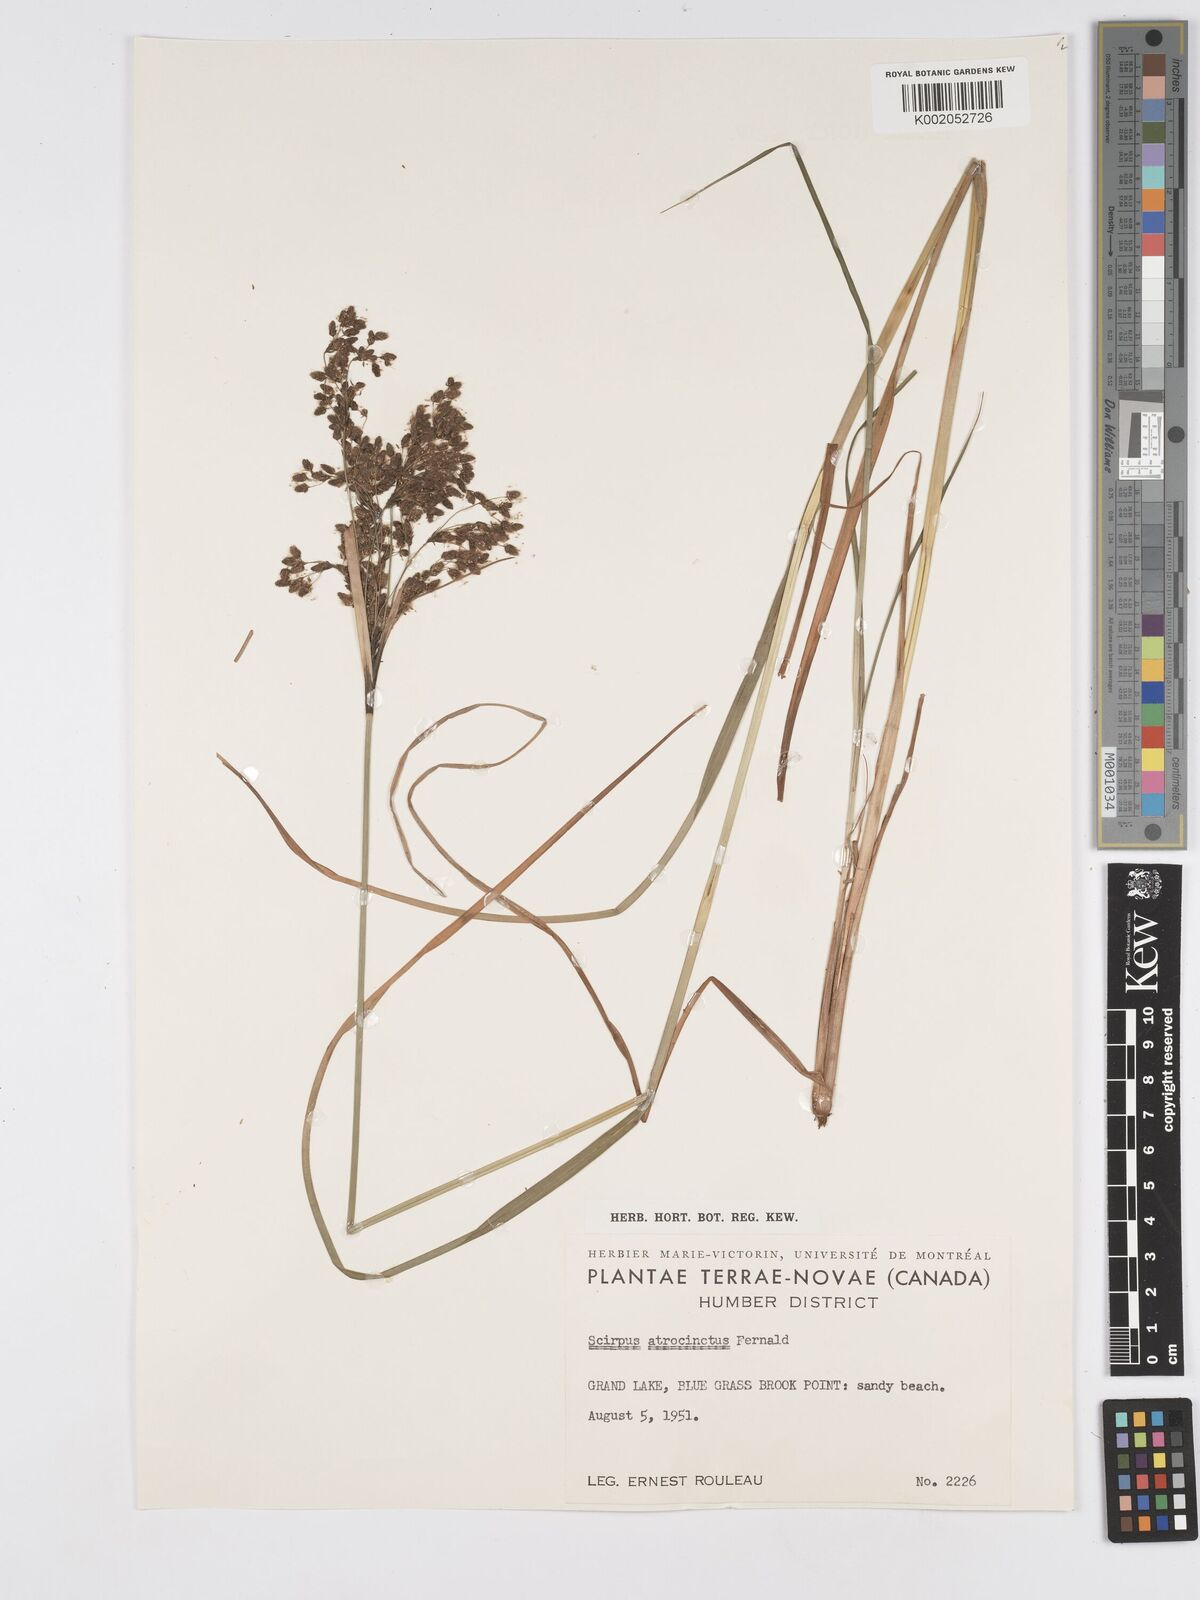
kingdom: Plantae
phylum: Tracheophyta
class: Liliopsida
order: Poales
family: Cyperaceae
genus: Scirpus
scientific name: Scirpus cyperinus
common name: Black-sheathed bulrush
